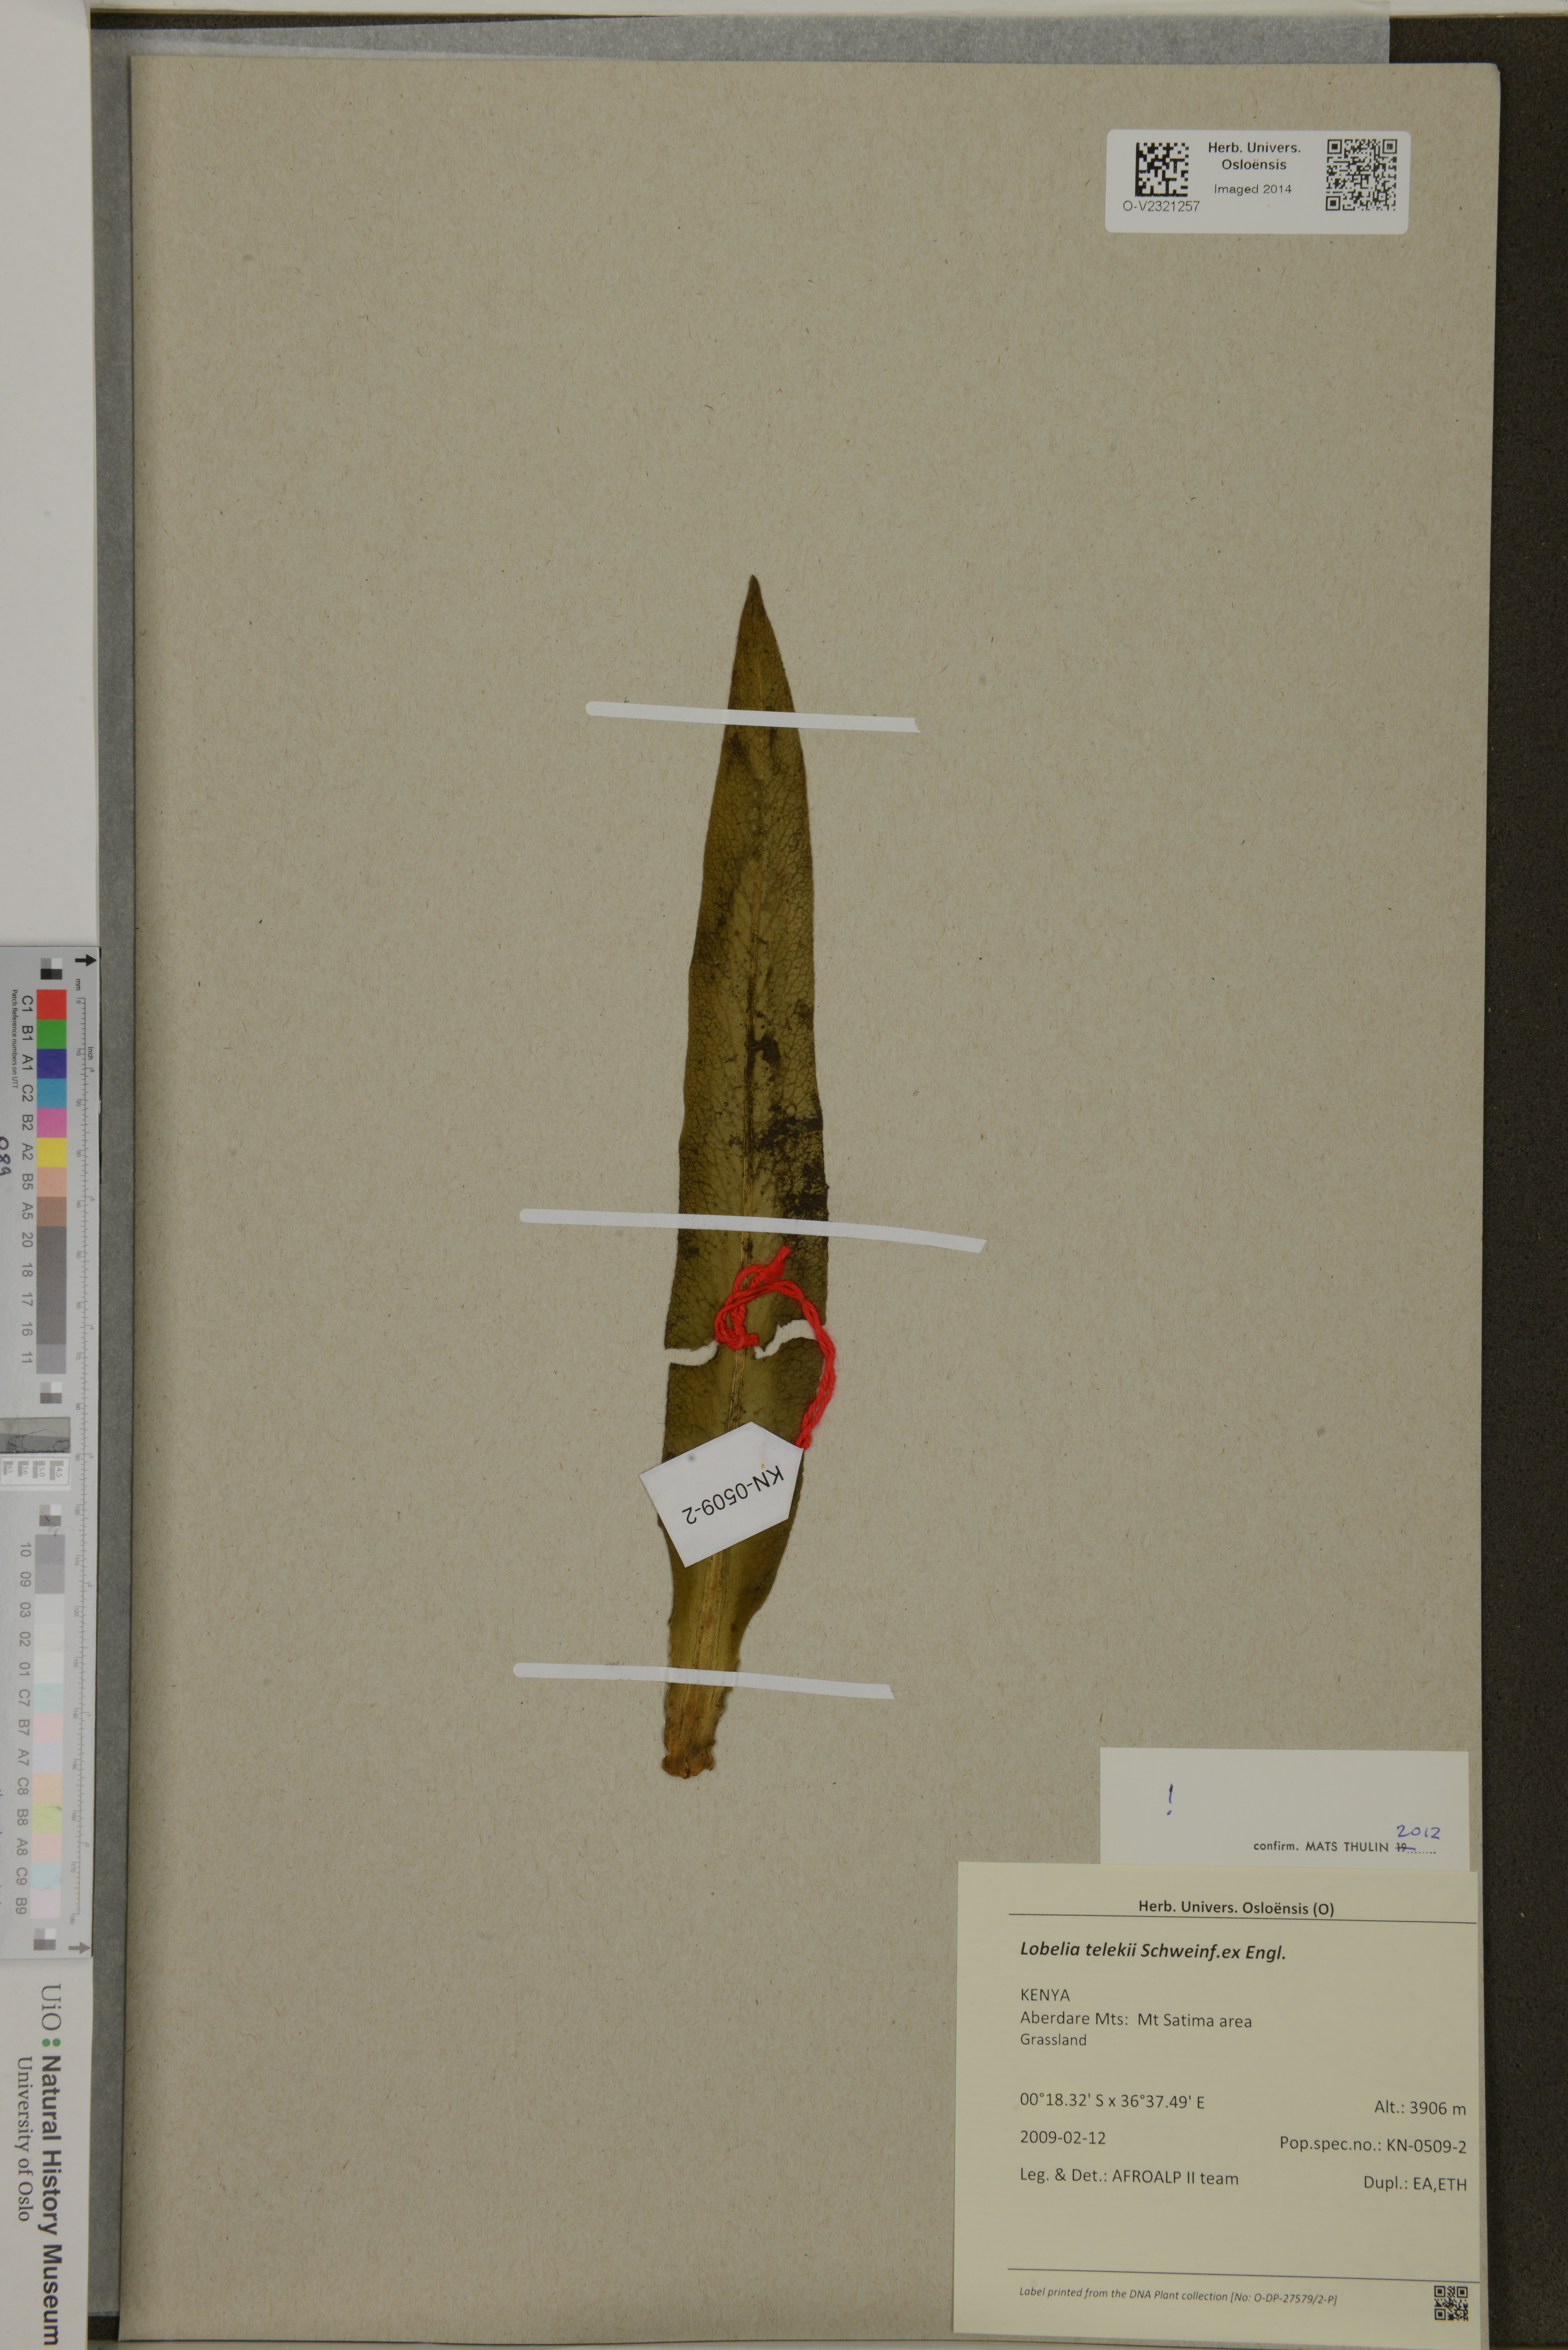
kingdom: Plantae
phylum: Tracheophyta
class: Magnoliopsida
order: Asterales
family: Campanulaceae
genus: Lobelia
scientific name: Lobelia telekii
